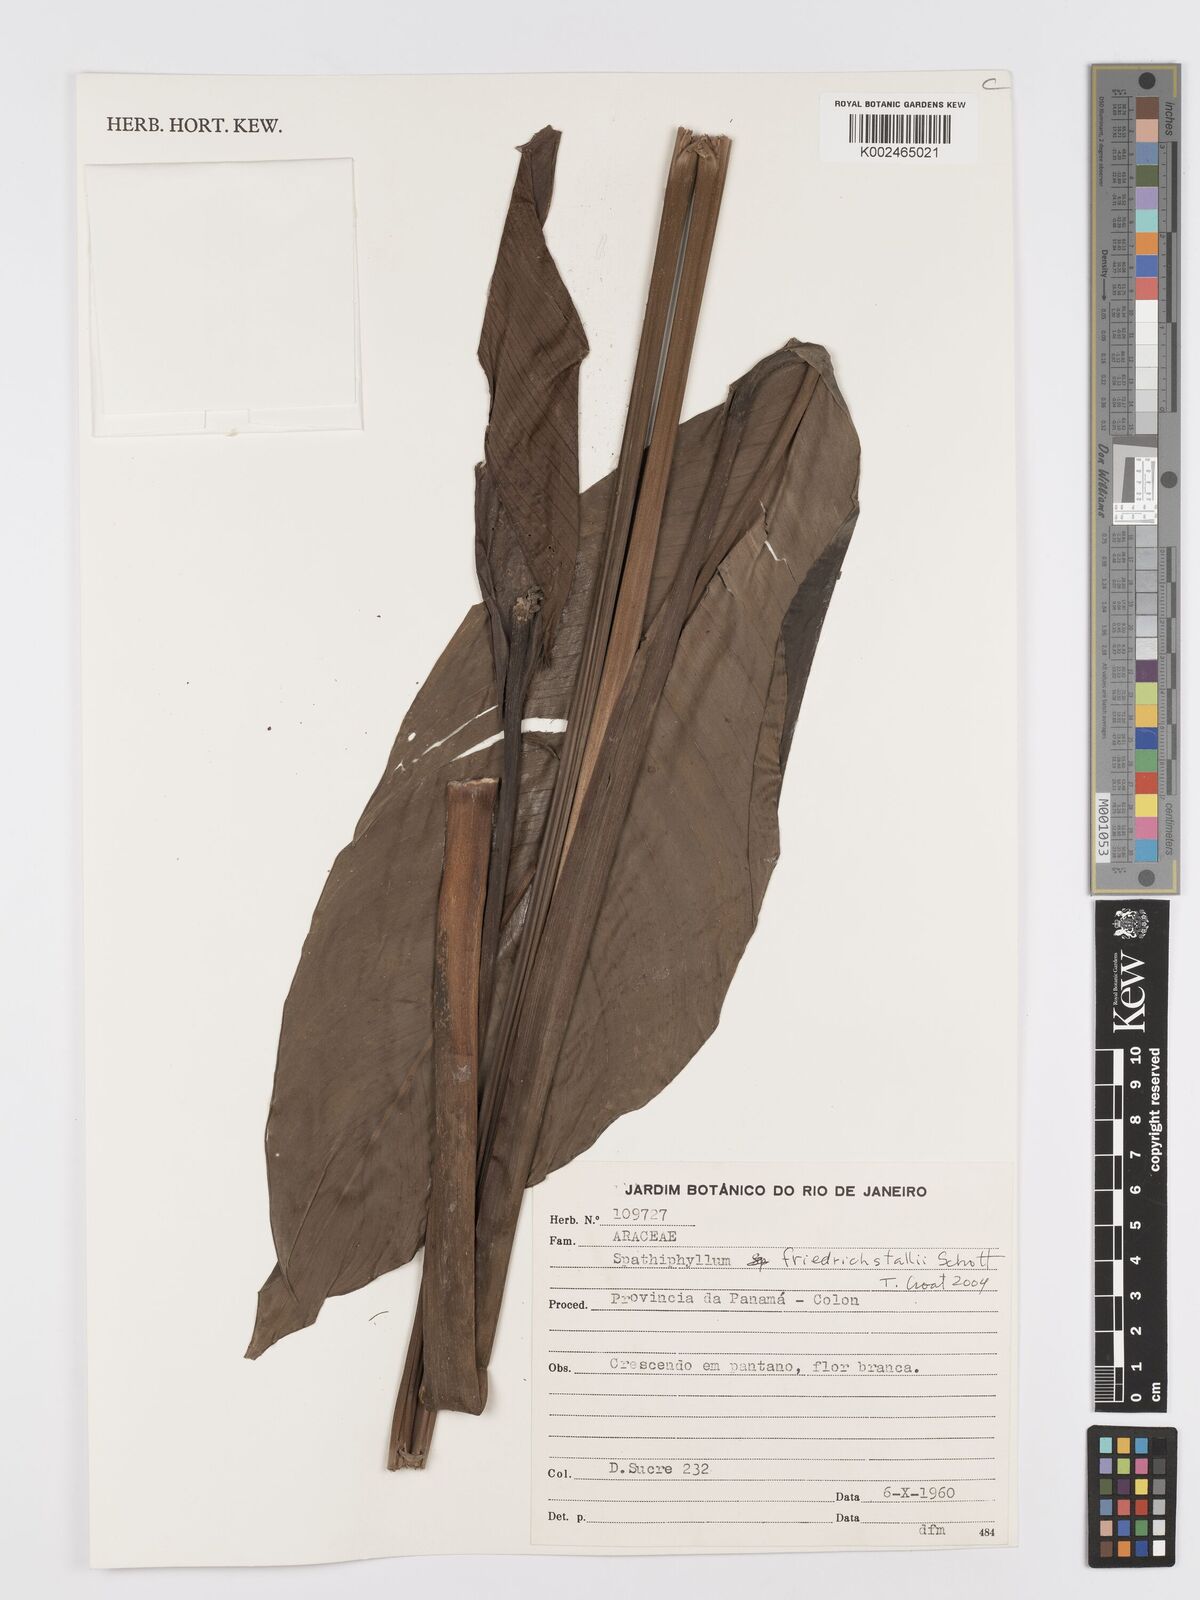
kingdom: Plantae
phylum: Tracheophyta
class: Liliopsida
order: Alismatales
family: Araceae
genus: Spathiphyllum
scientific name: Spathiphyllum friedrichsthalii
